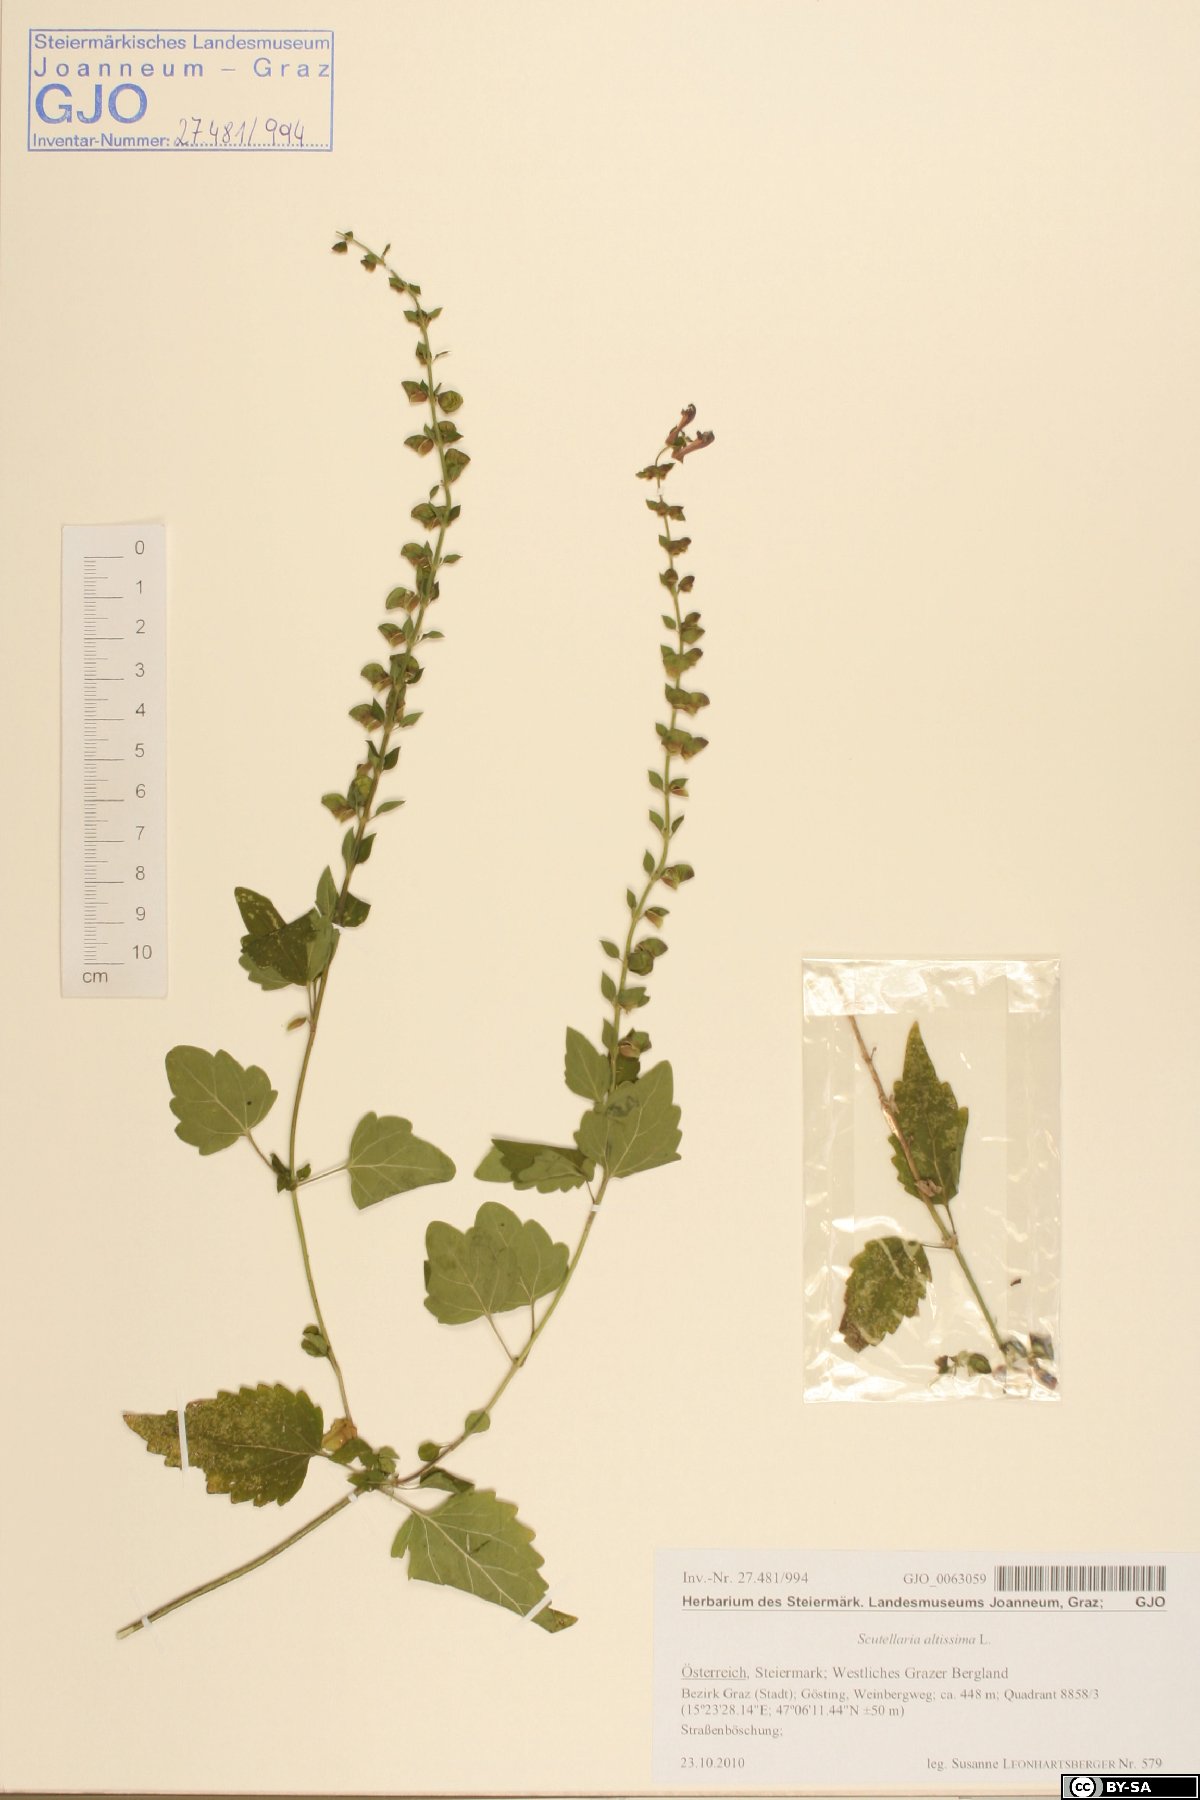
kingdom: Plantae
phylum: Tracheophyta
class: Magnoliopsida
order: Lamiales
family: Lamiaceae
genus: Scutellaria
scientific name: Scutellaria altissima
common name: Somerset skullcap
